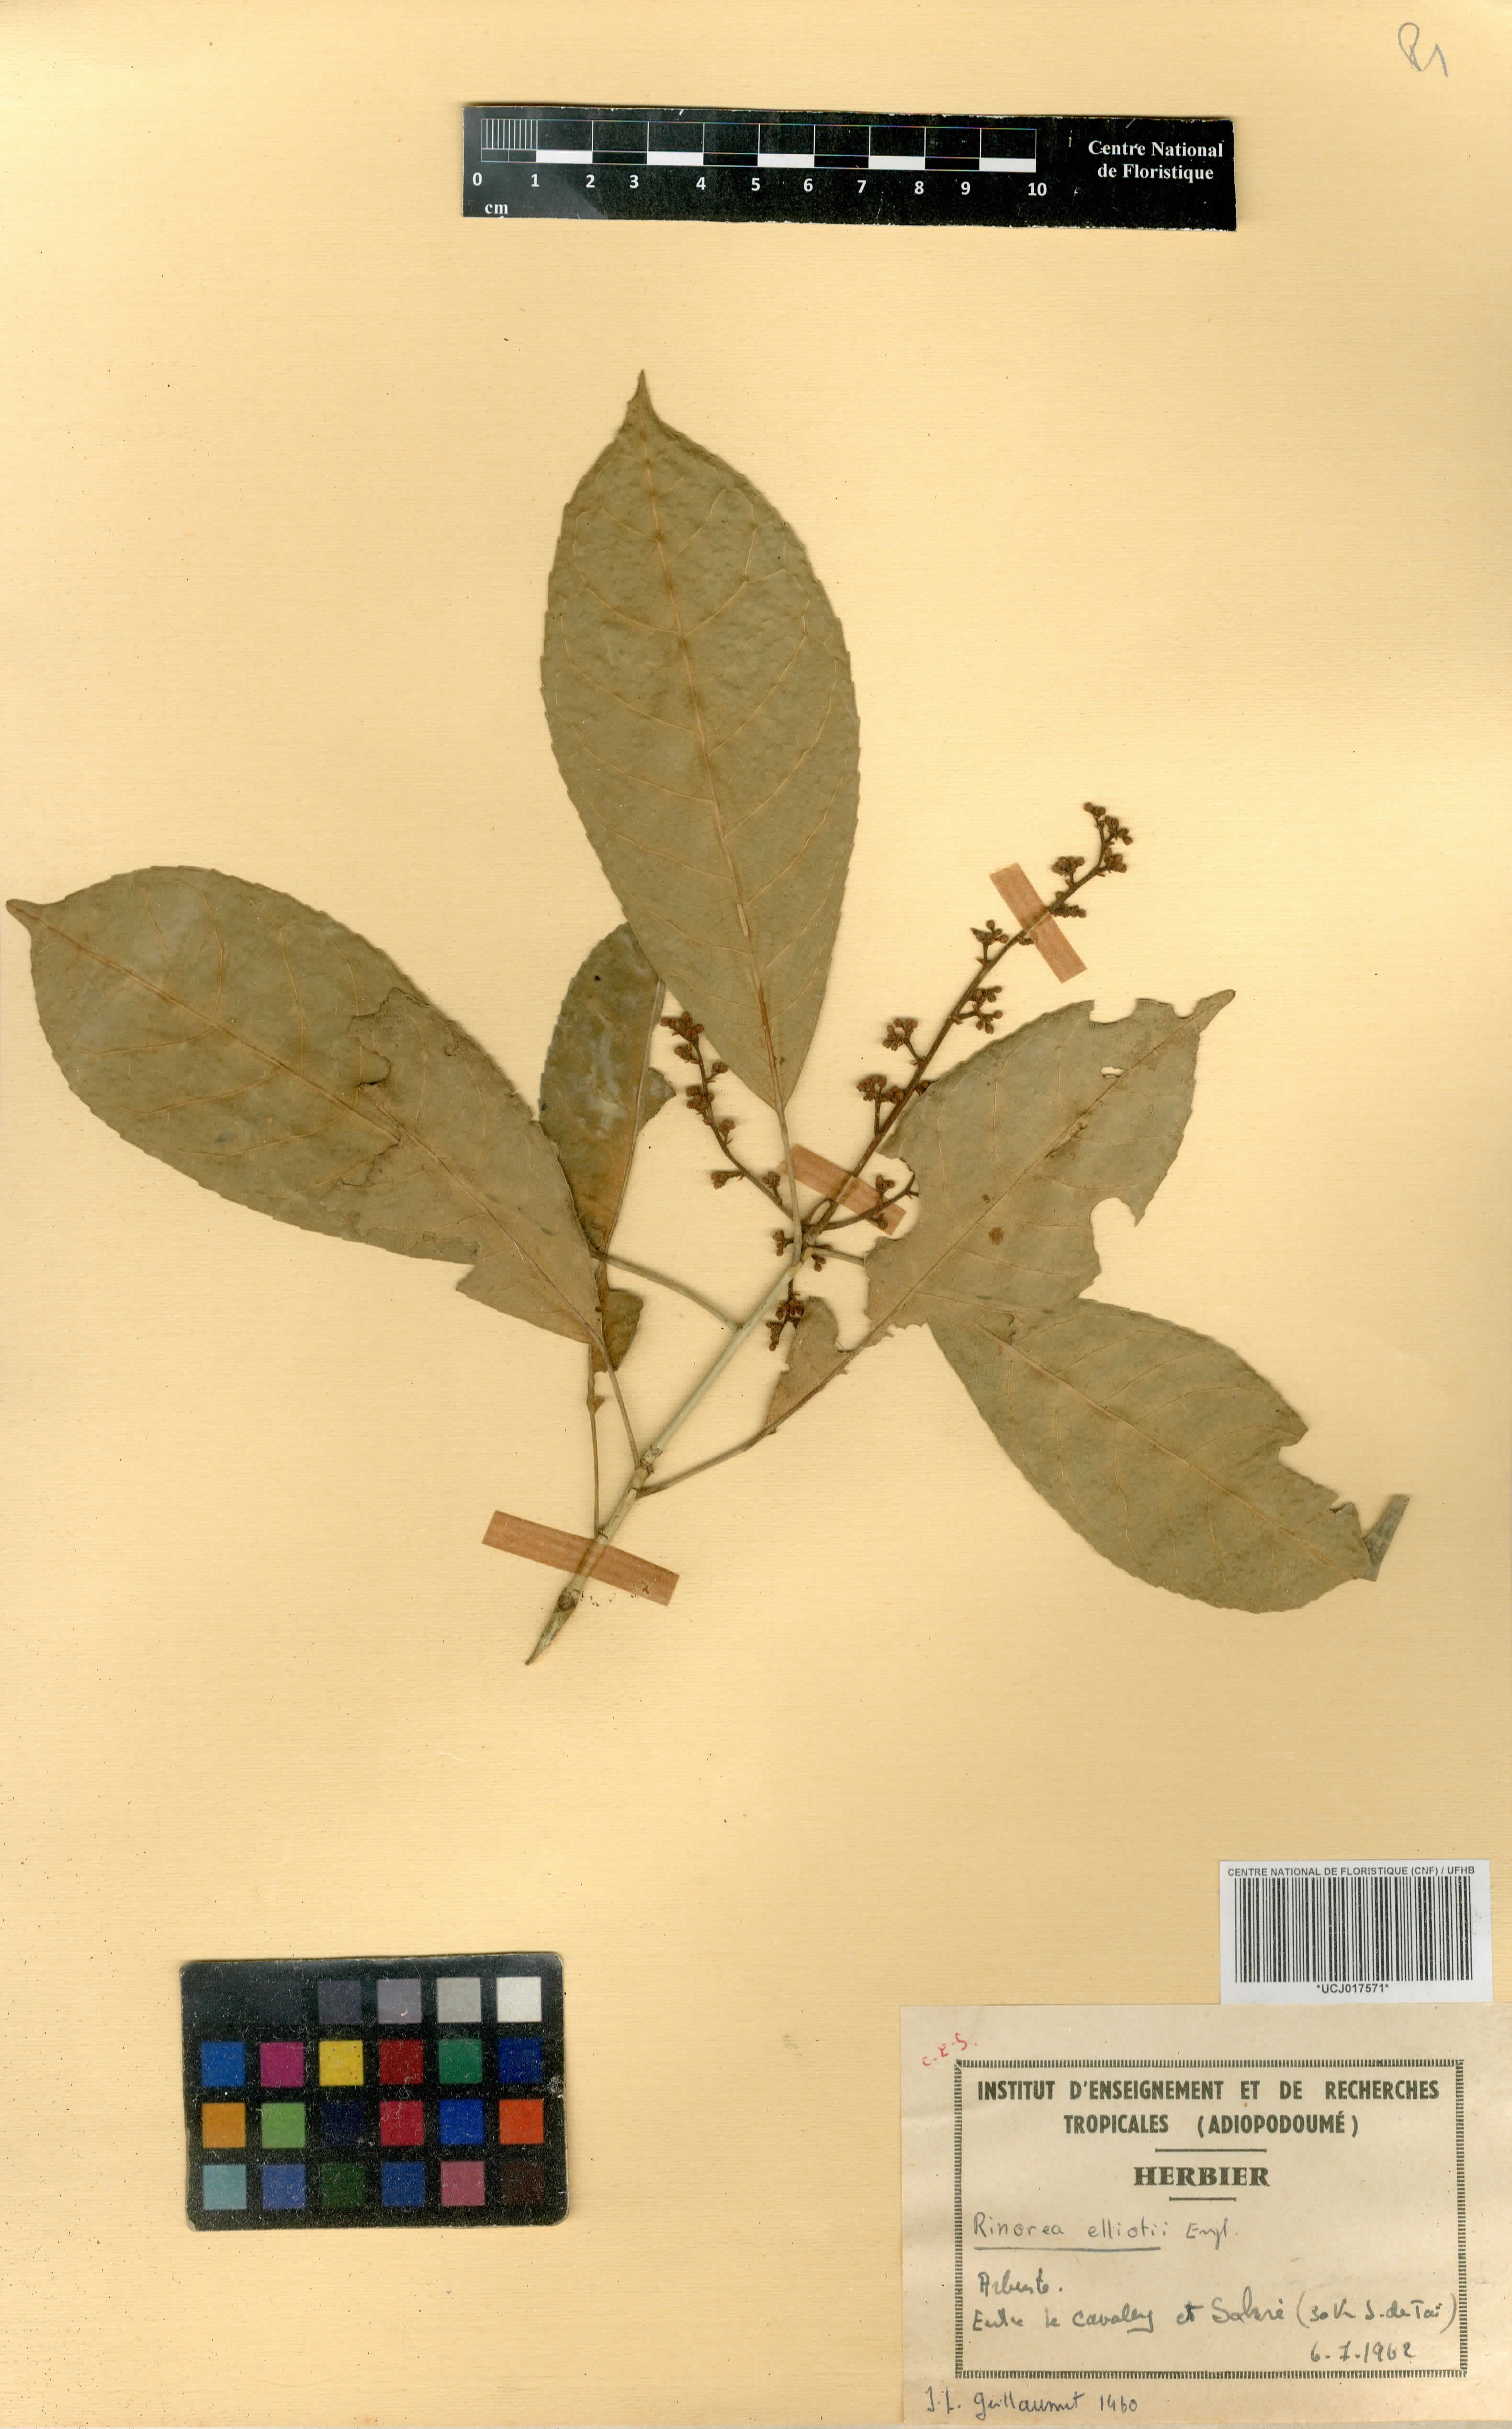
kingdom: Plantae
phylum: Tracheophyta
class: Magnoliopsida
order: Malpighiales
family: Violaceae
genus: Rinorea
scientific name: Rinorea welwitschii
